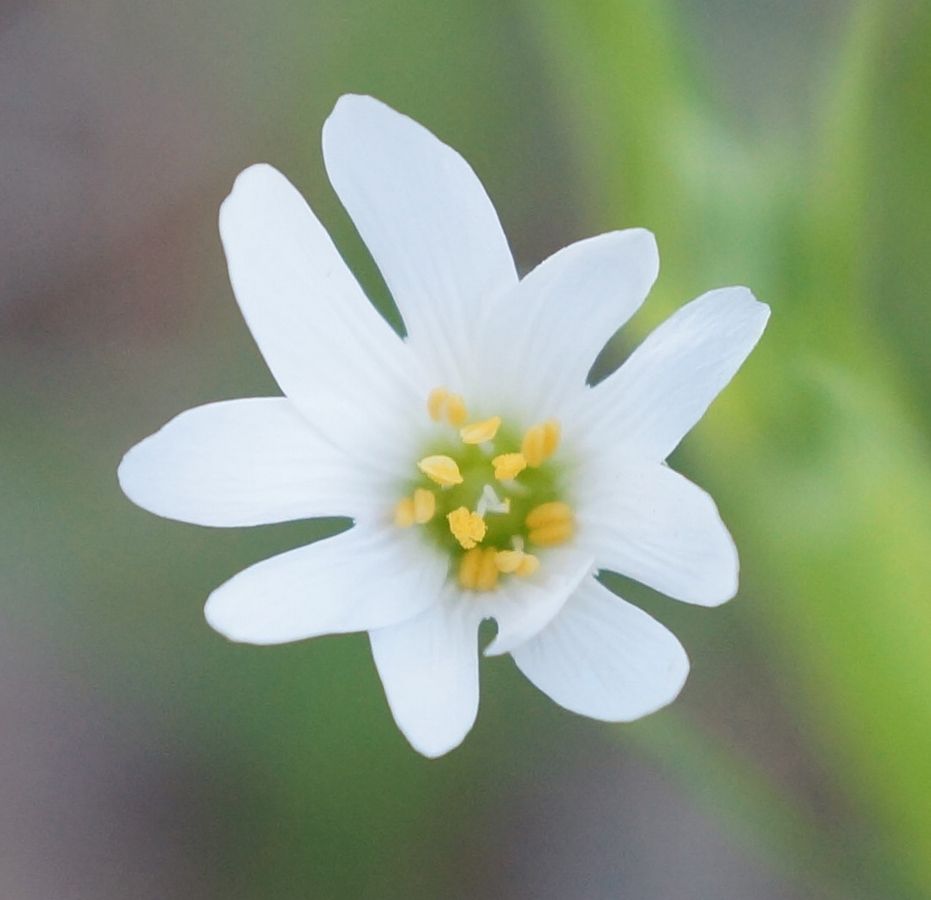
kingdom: Plantae
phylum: Tracheophyta
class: Magnoliopsida
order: Caryophyllales
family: Caryophyllaceae
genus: Stellaria
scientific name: Stellaria
